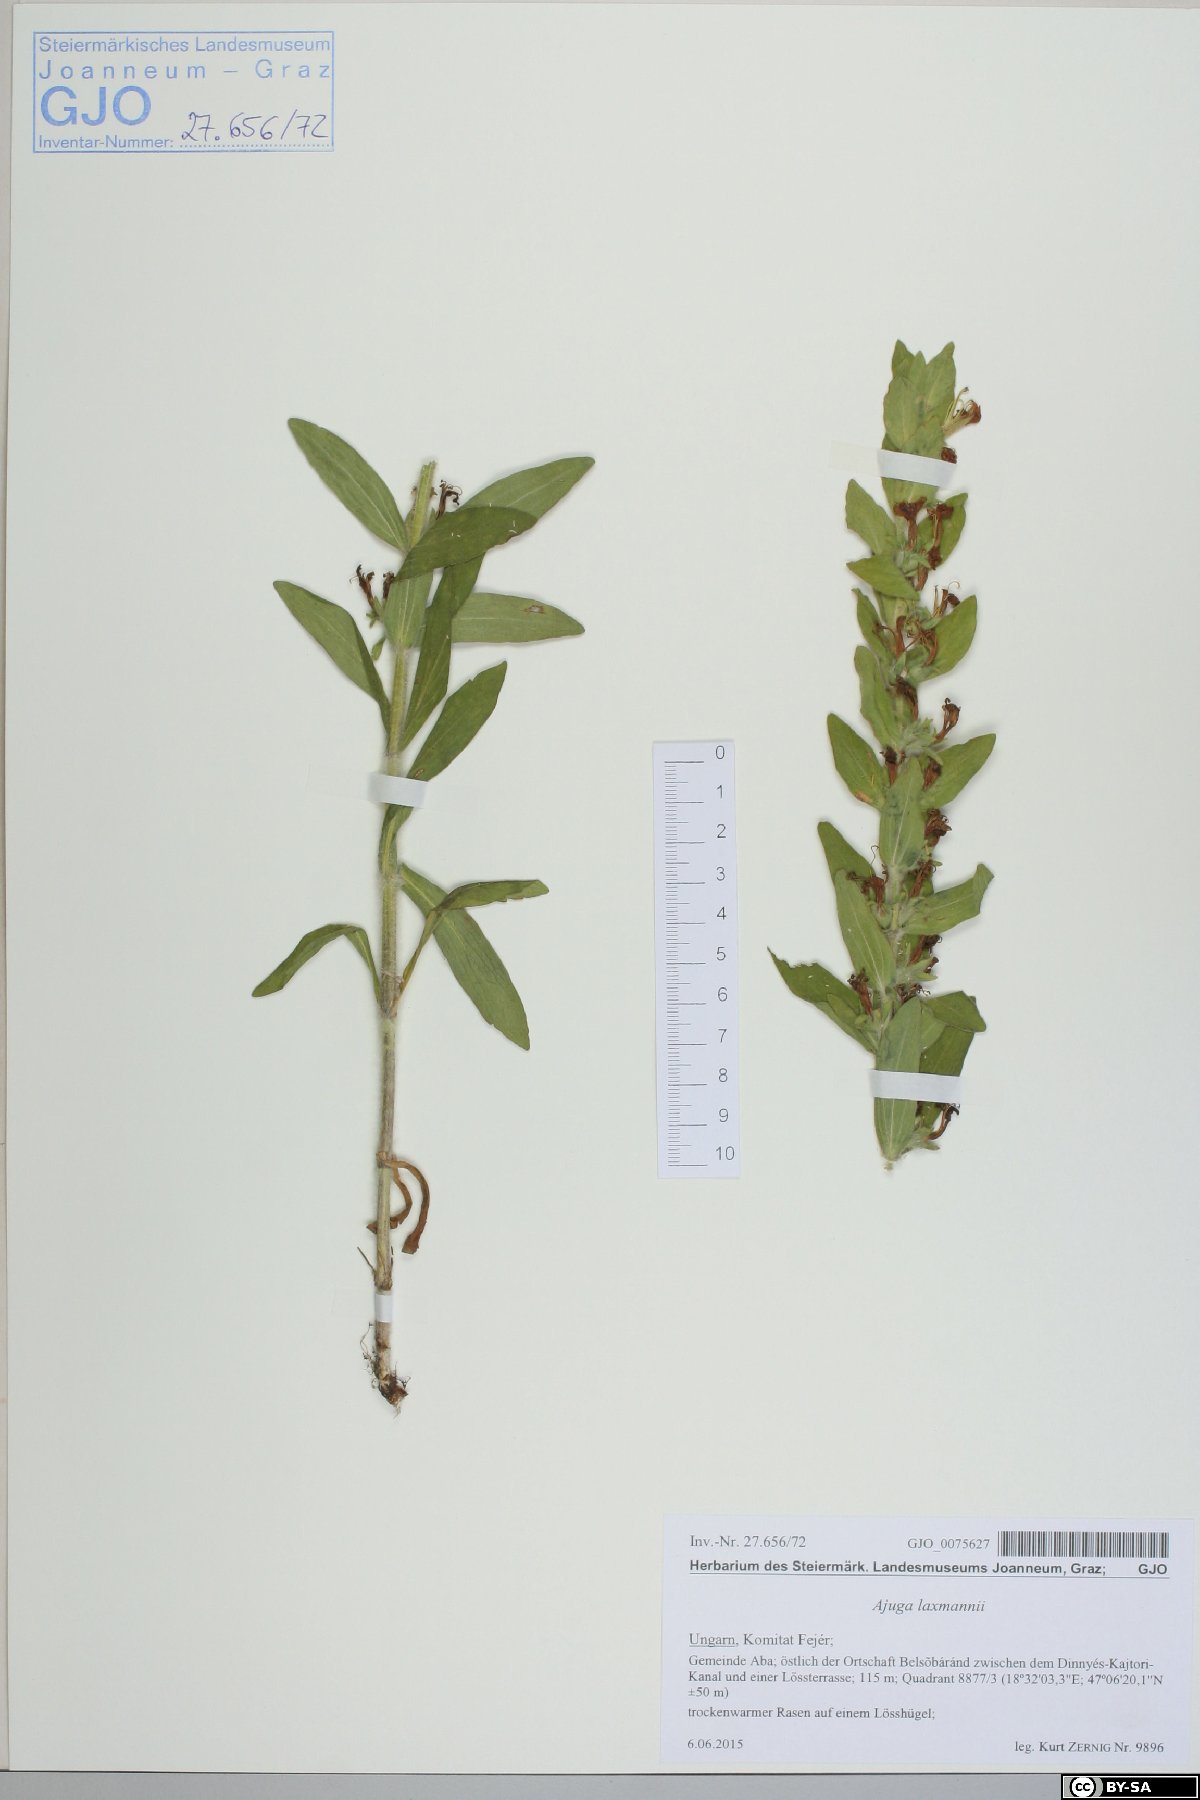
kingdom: Plantae
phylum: Tracheophyta
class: Magnoliopsida
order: Lamiales
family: Lamiaceae
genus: Ajuga
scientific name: Ajuga laxmannii
